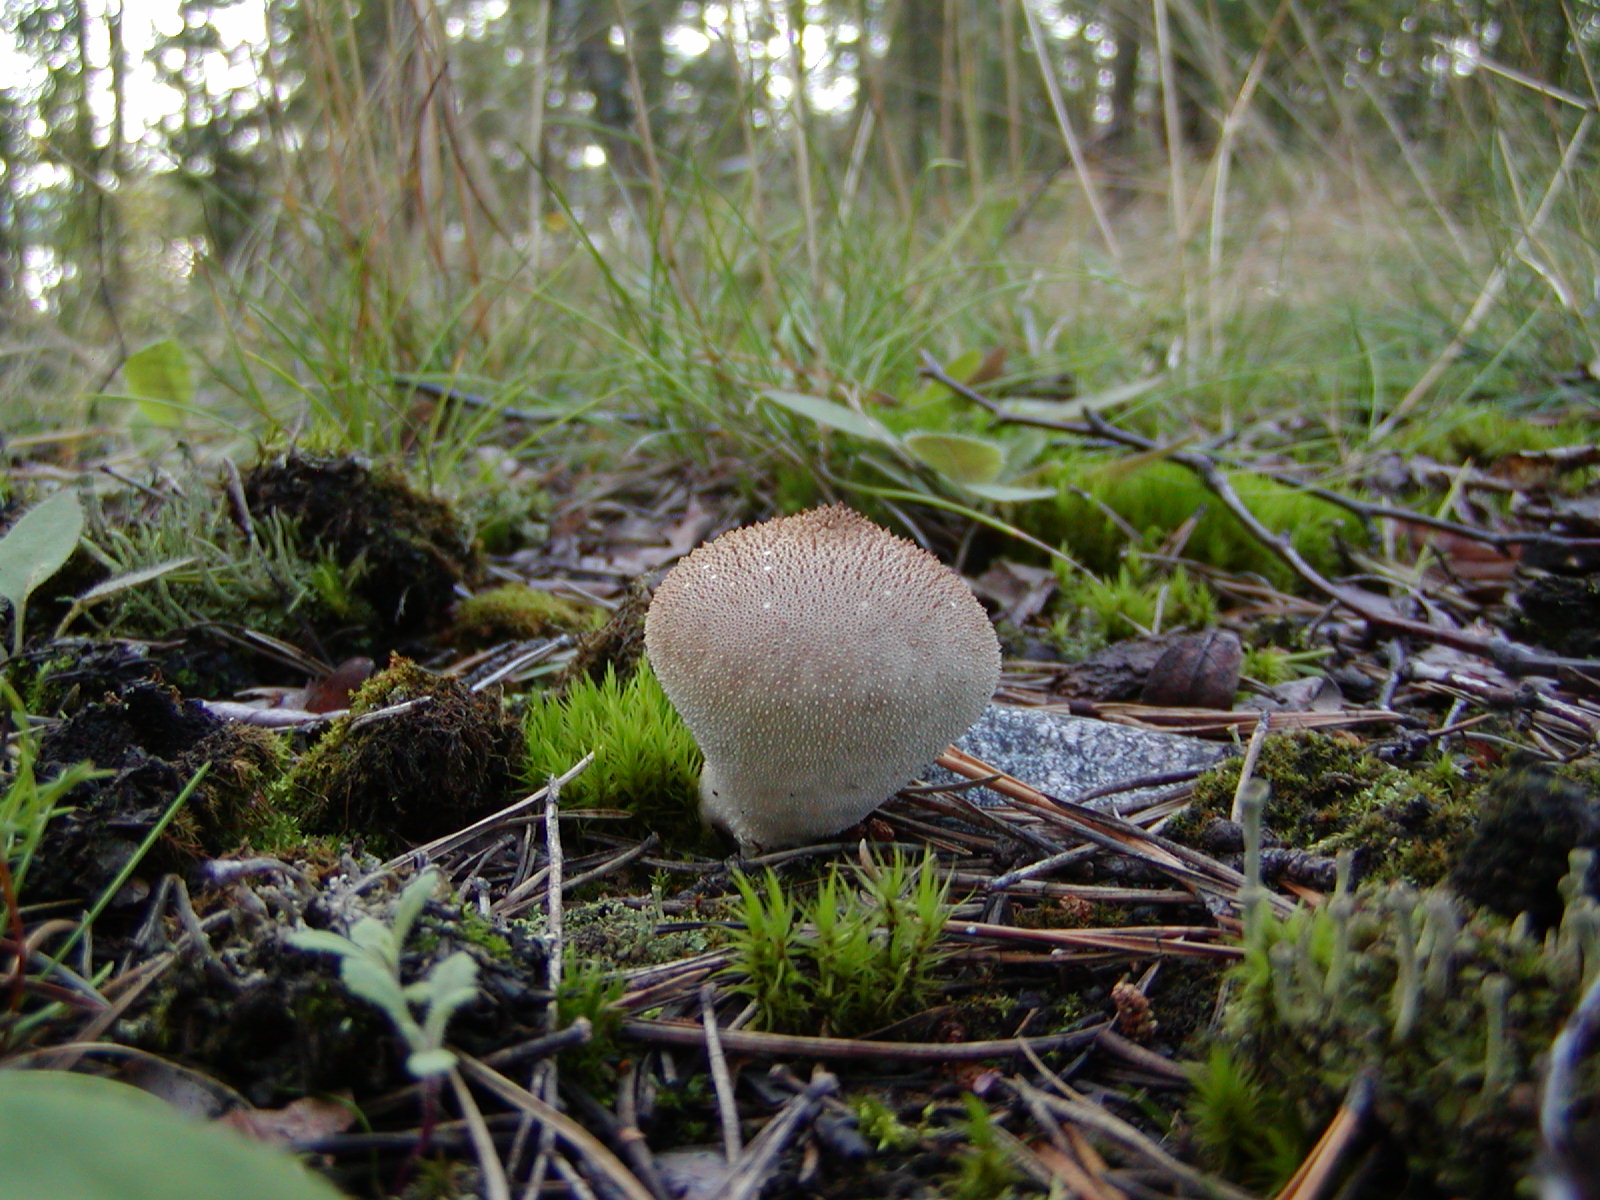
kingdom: Fungi
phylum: Basidiomycota
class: Agaricomycetes
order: Agaricales
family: Lycoperdaceae
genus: Lycoperdon
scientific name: Lycoperdon perlatum
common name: Common puffball
